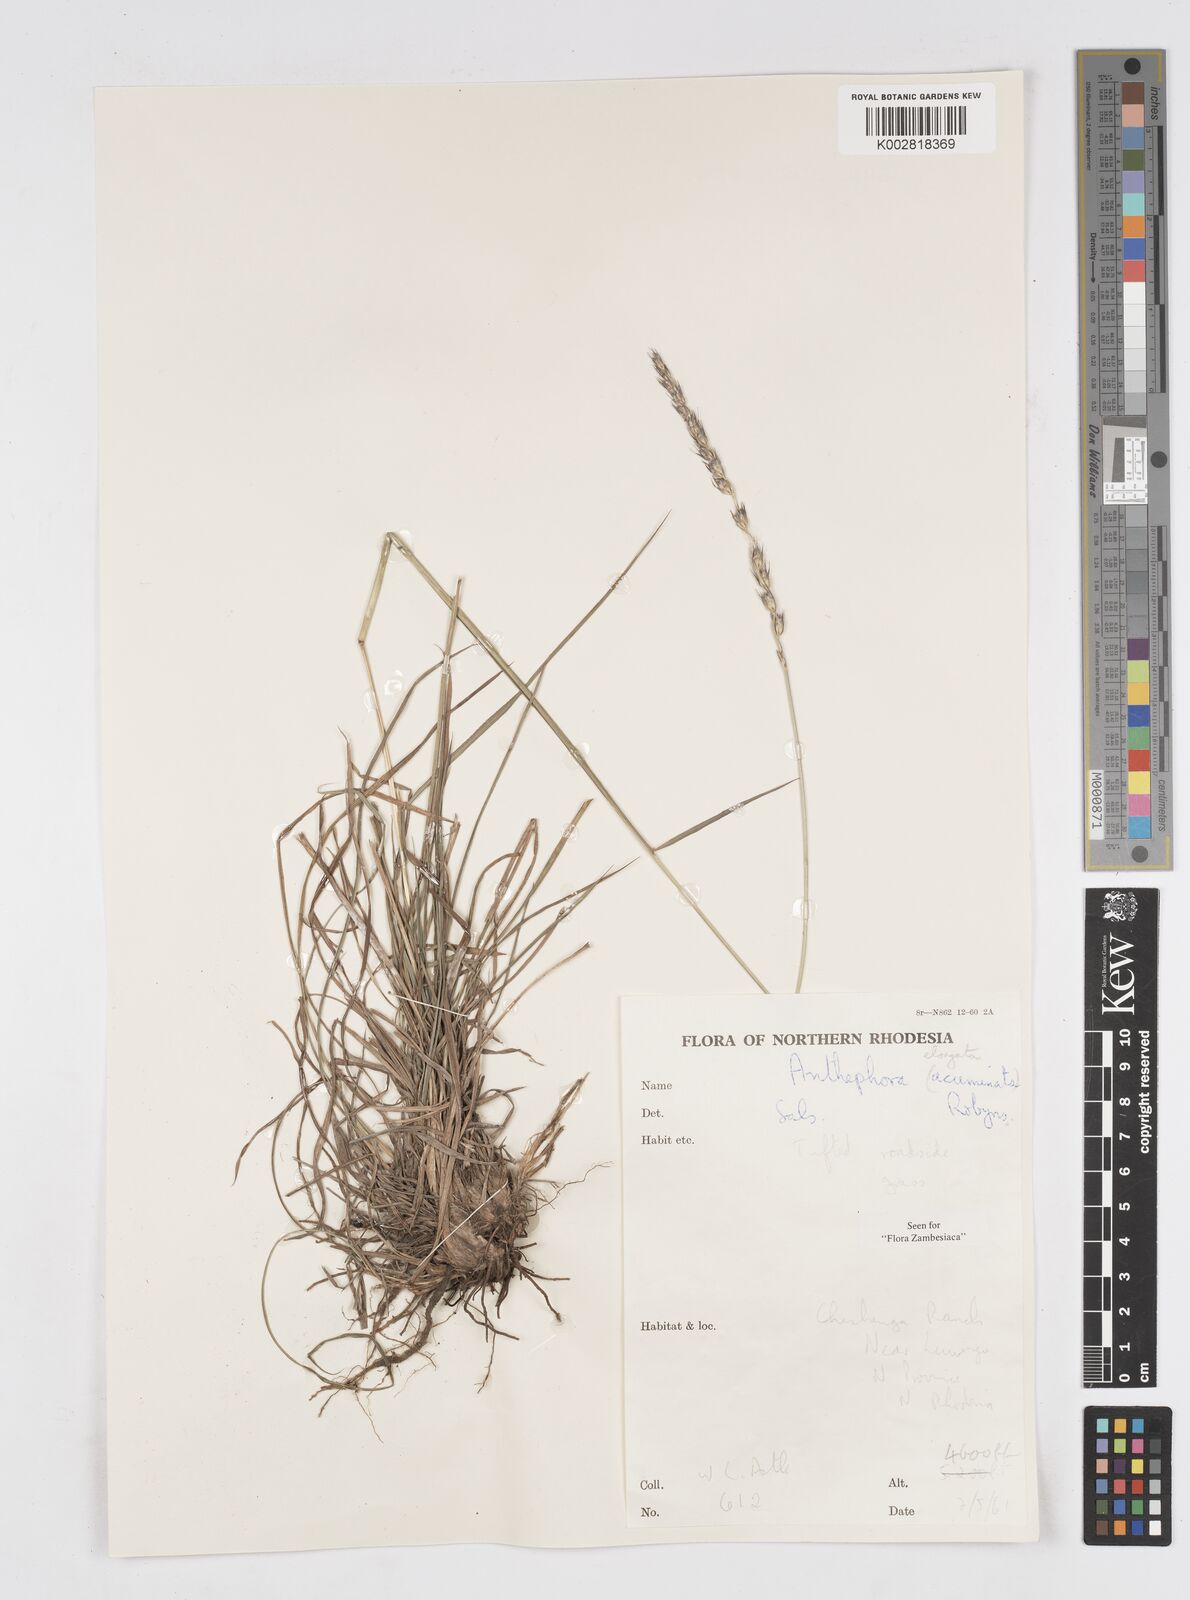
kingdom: Plantae
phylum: Tracheophyta
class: Liliopsida
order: Poales
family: Poaceae
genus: Anthephora
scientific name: Anthephora elongata
